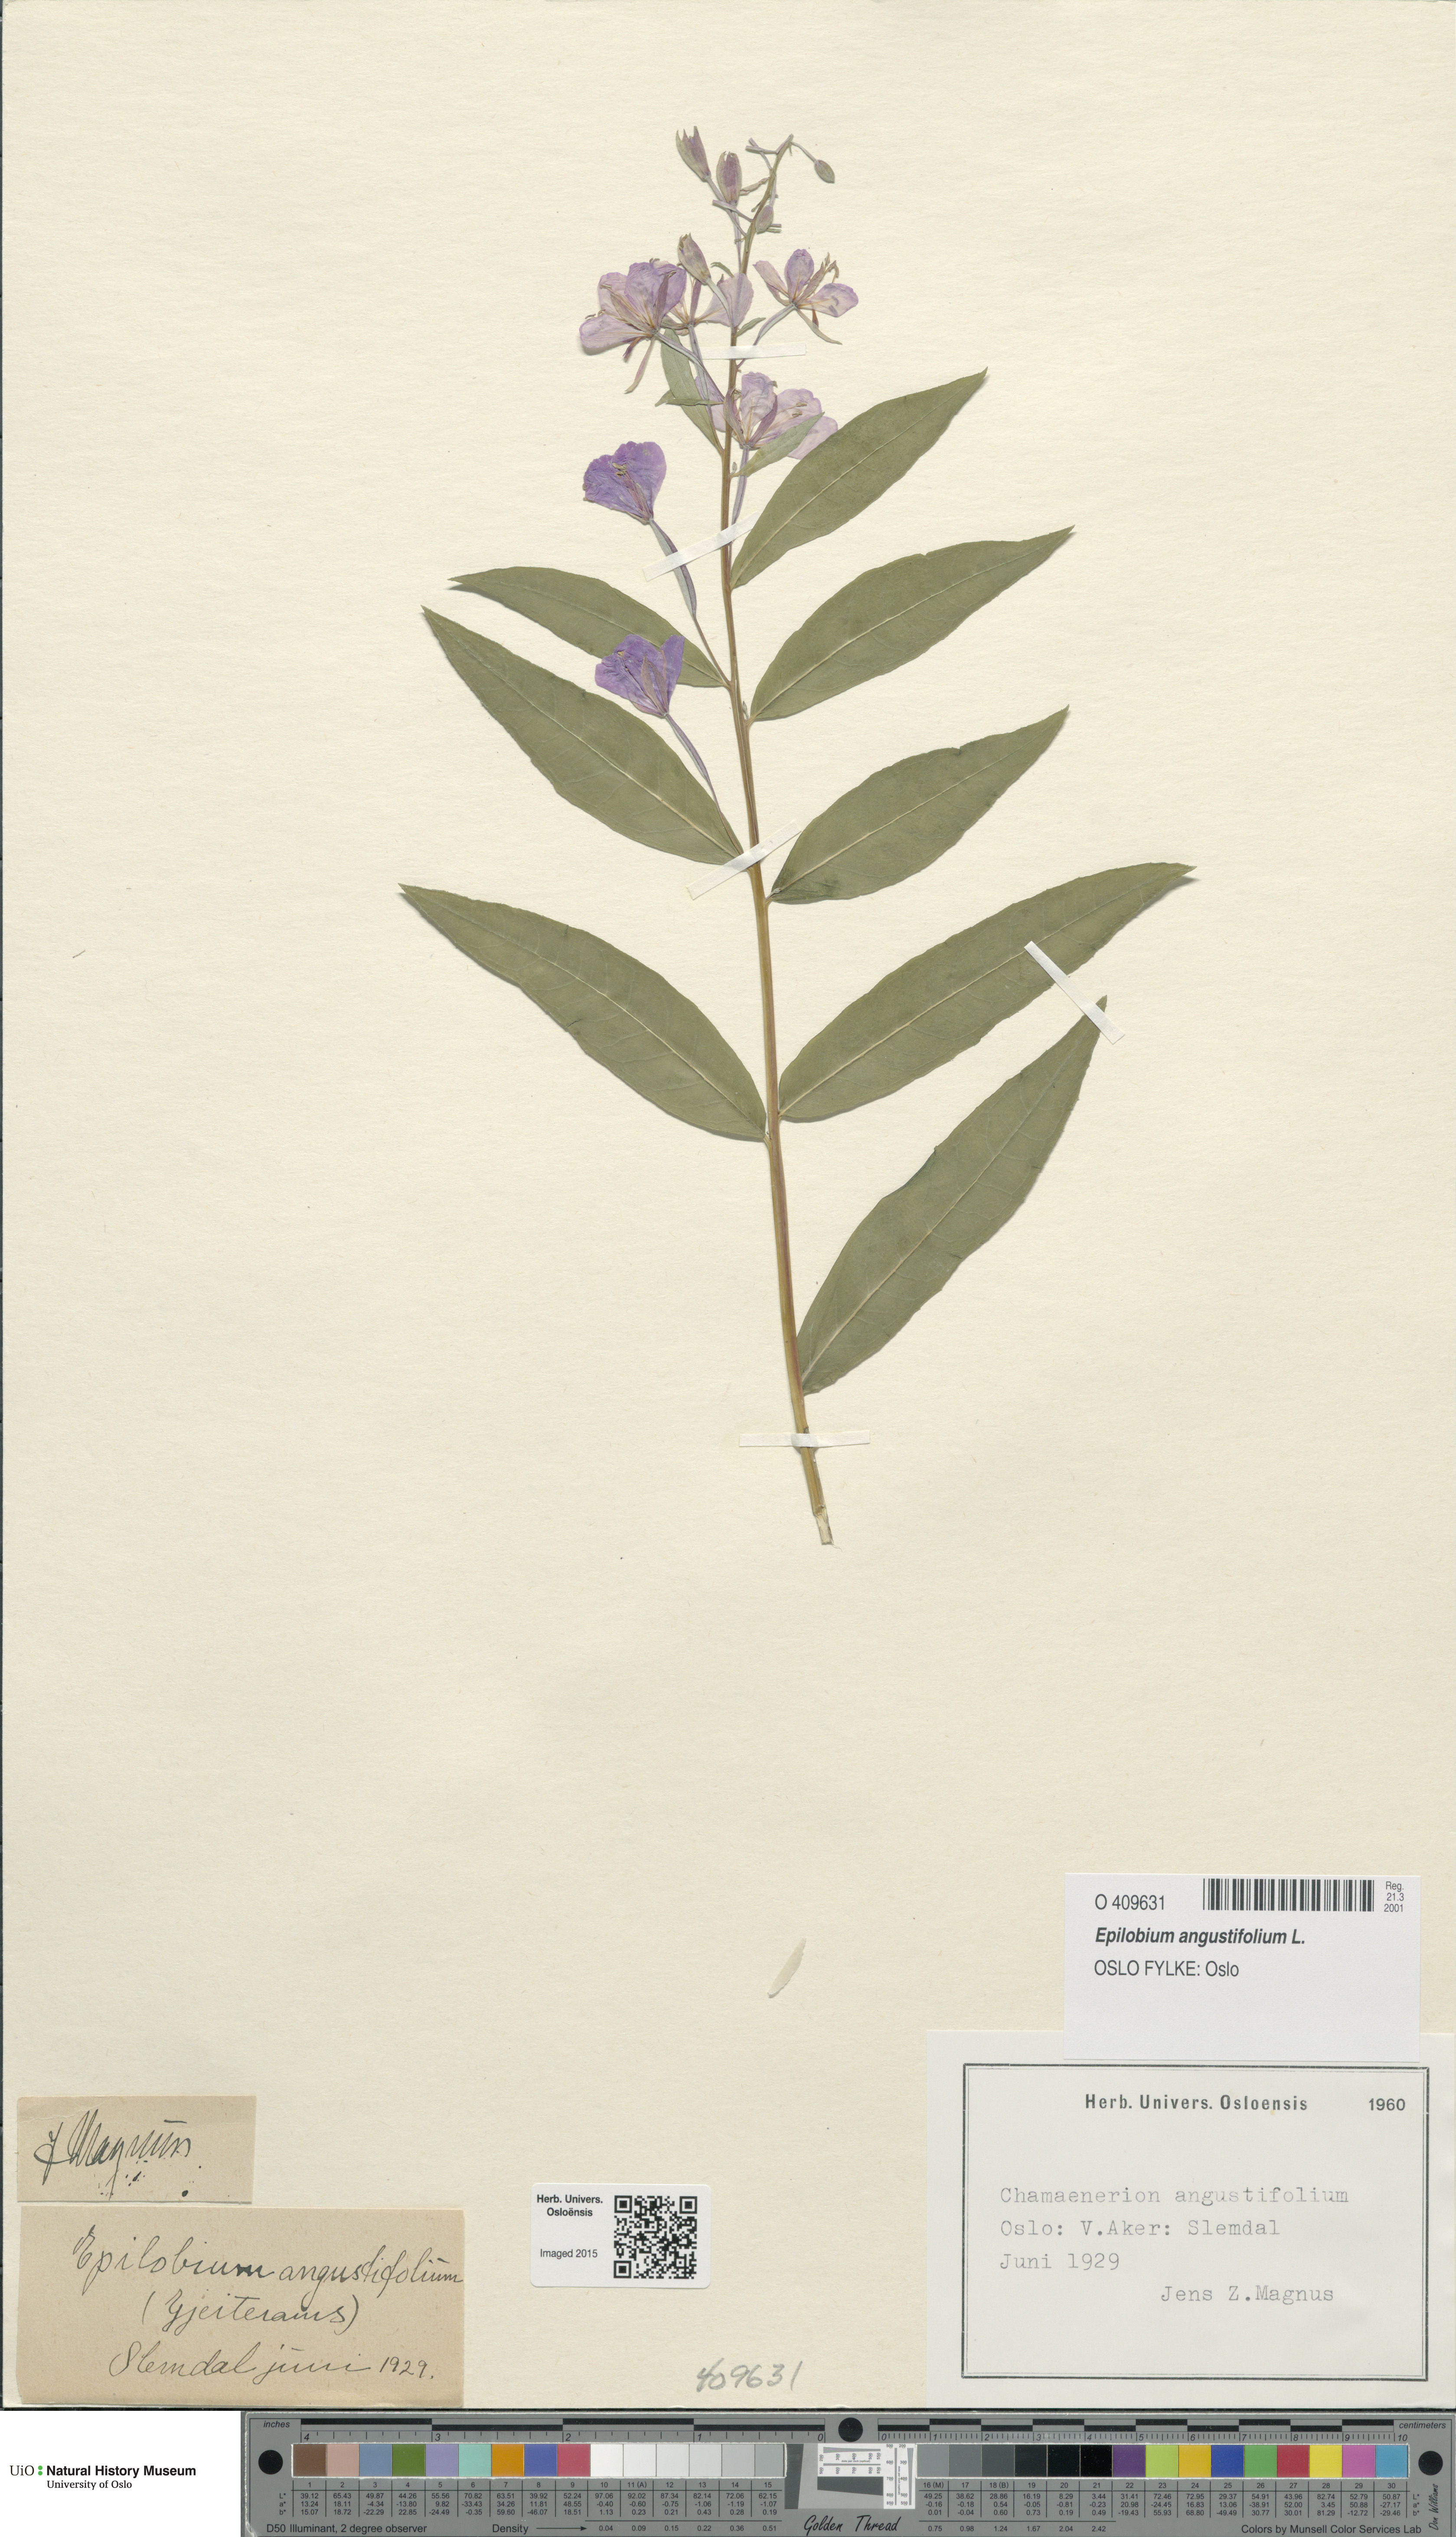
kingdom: Plantae
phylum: Tracheophyta
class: Magnoliopsida
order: Myrtales
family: Onagraceae
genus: Chamaenerion
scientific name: Chamaenerion angustifolium
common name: Fireweed
